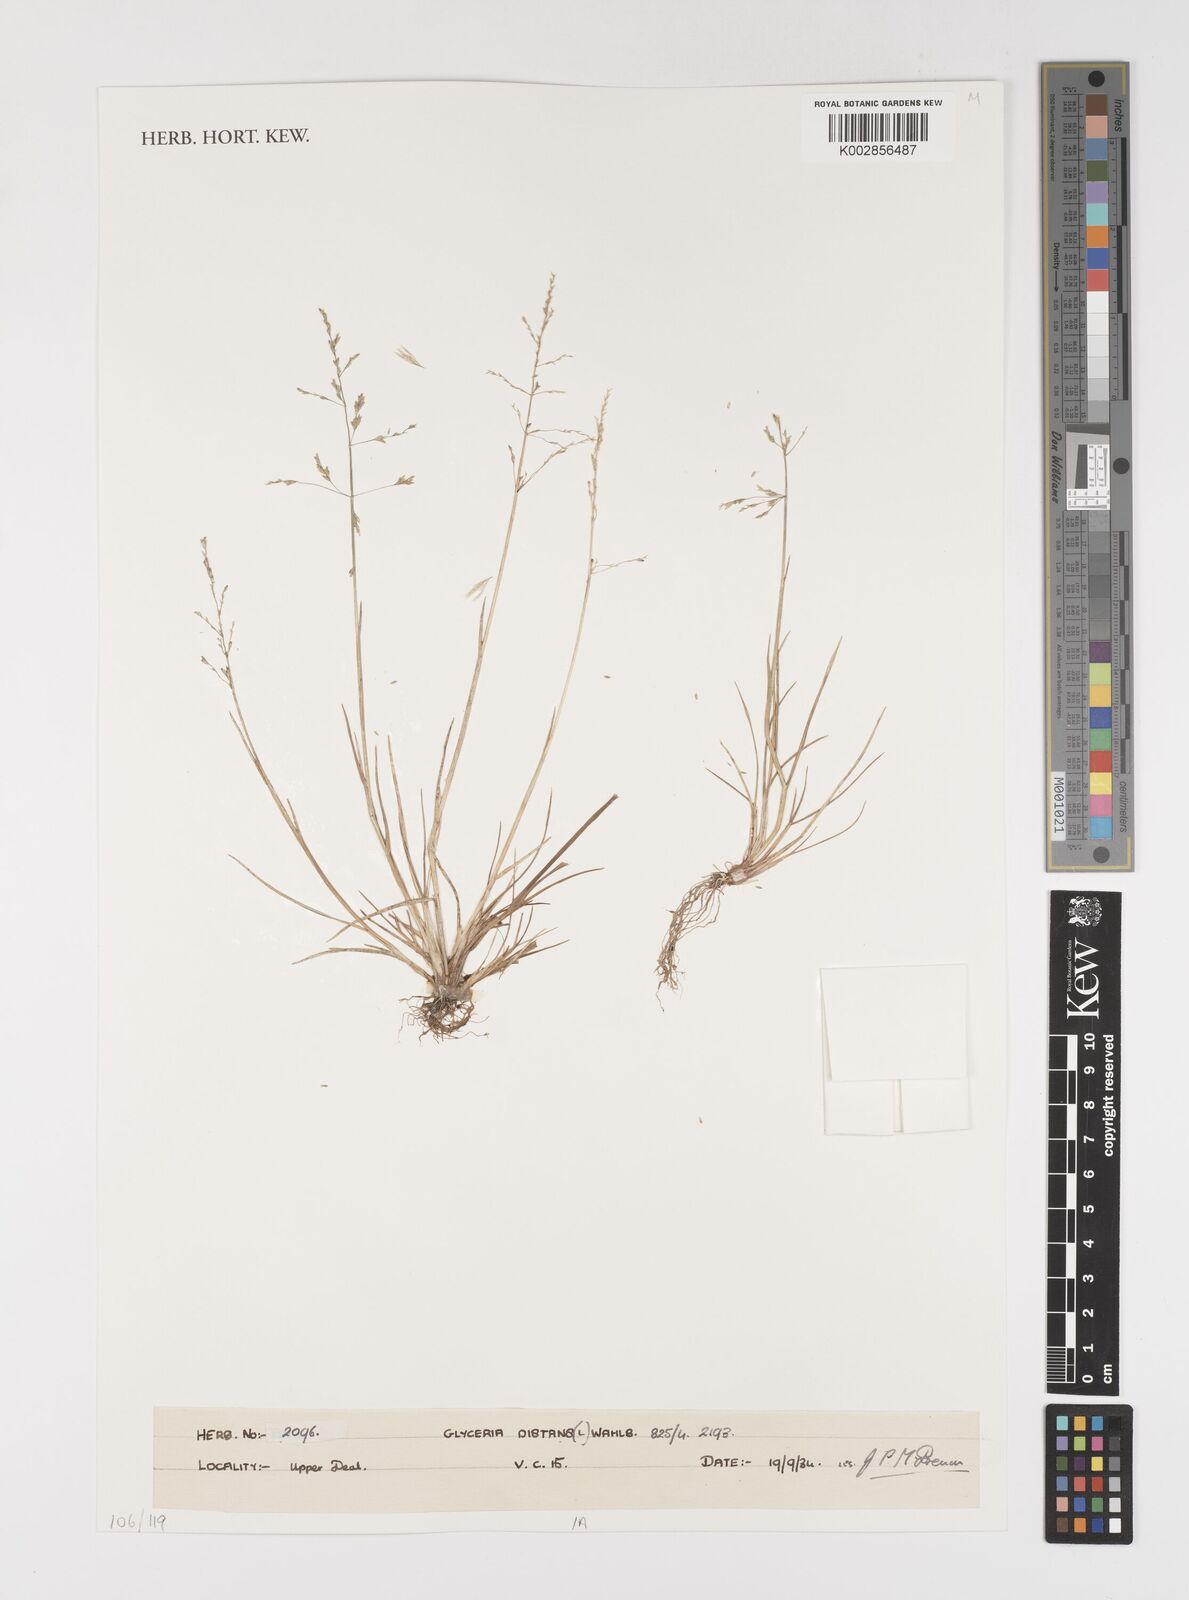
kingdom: Plantae
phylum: Tracheophyta
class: Liliopsida
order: Poales
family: Poaceae
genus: Puccinellia
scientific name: Puccinellia distans
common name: Weeping alkaligrass
